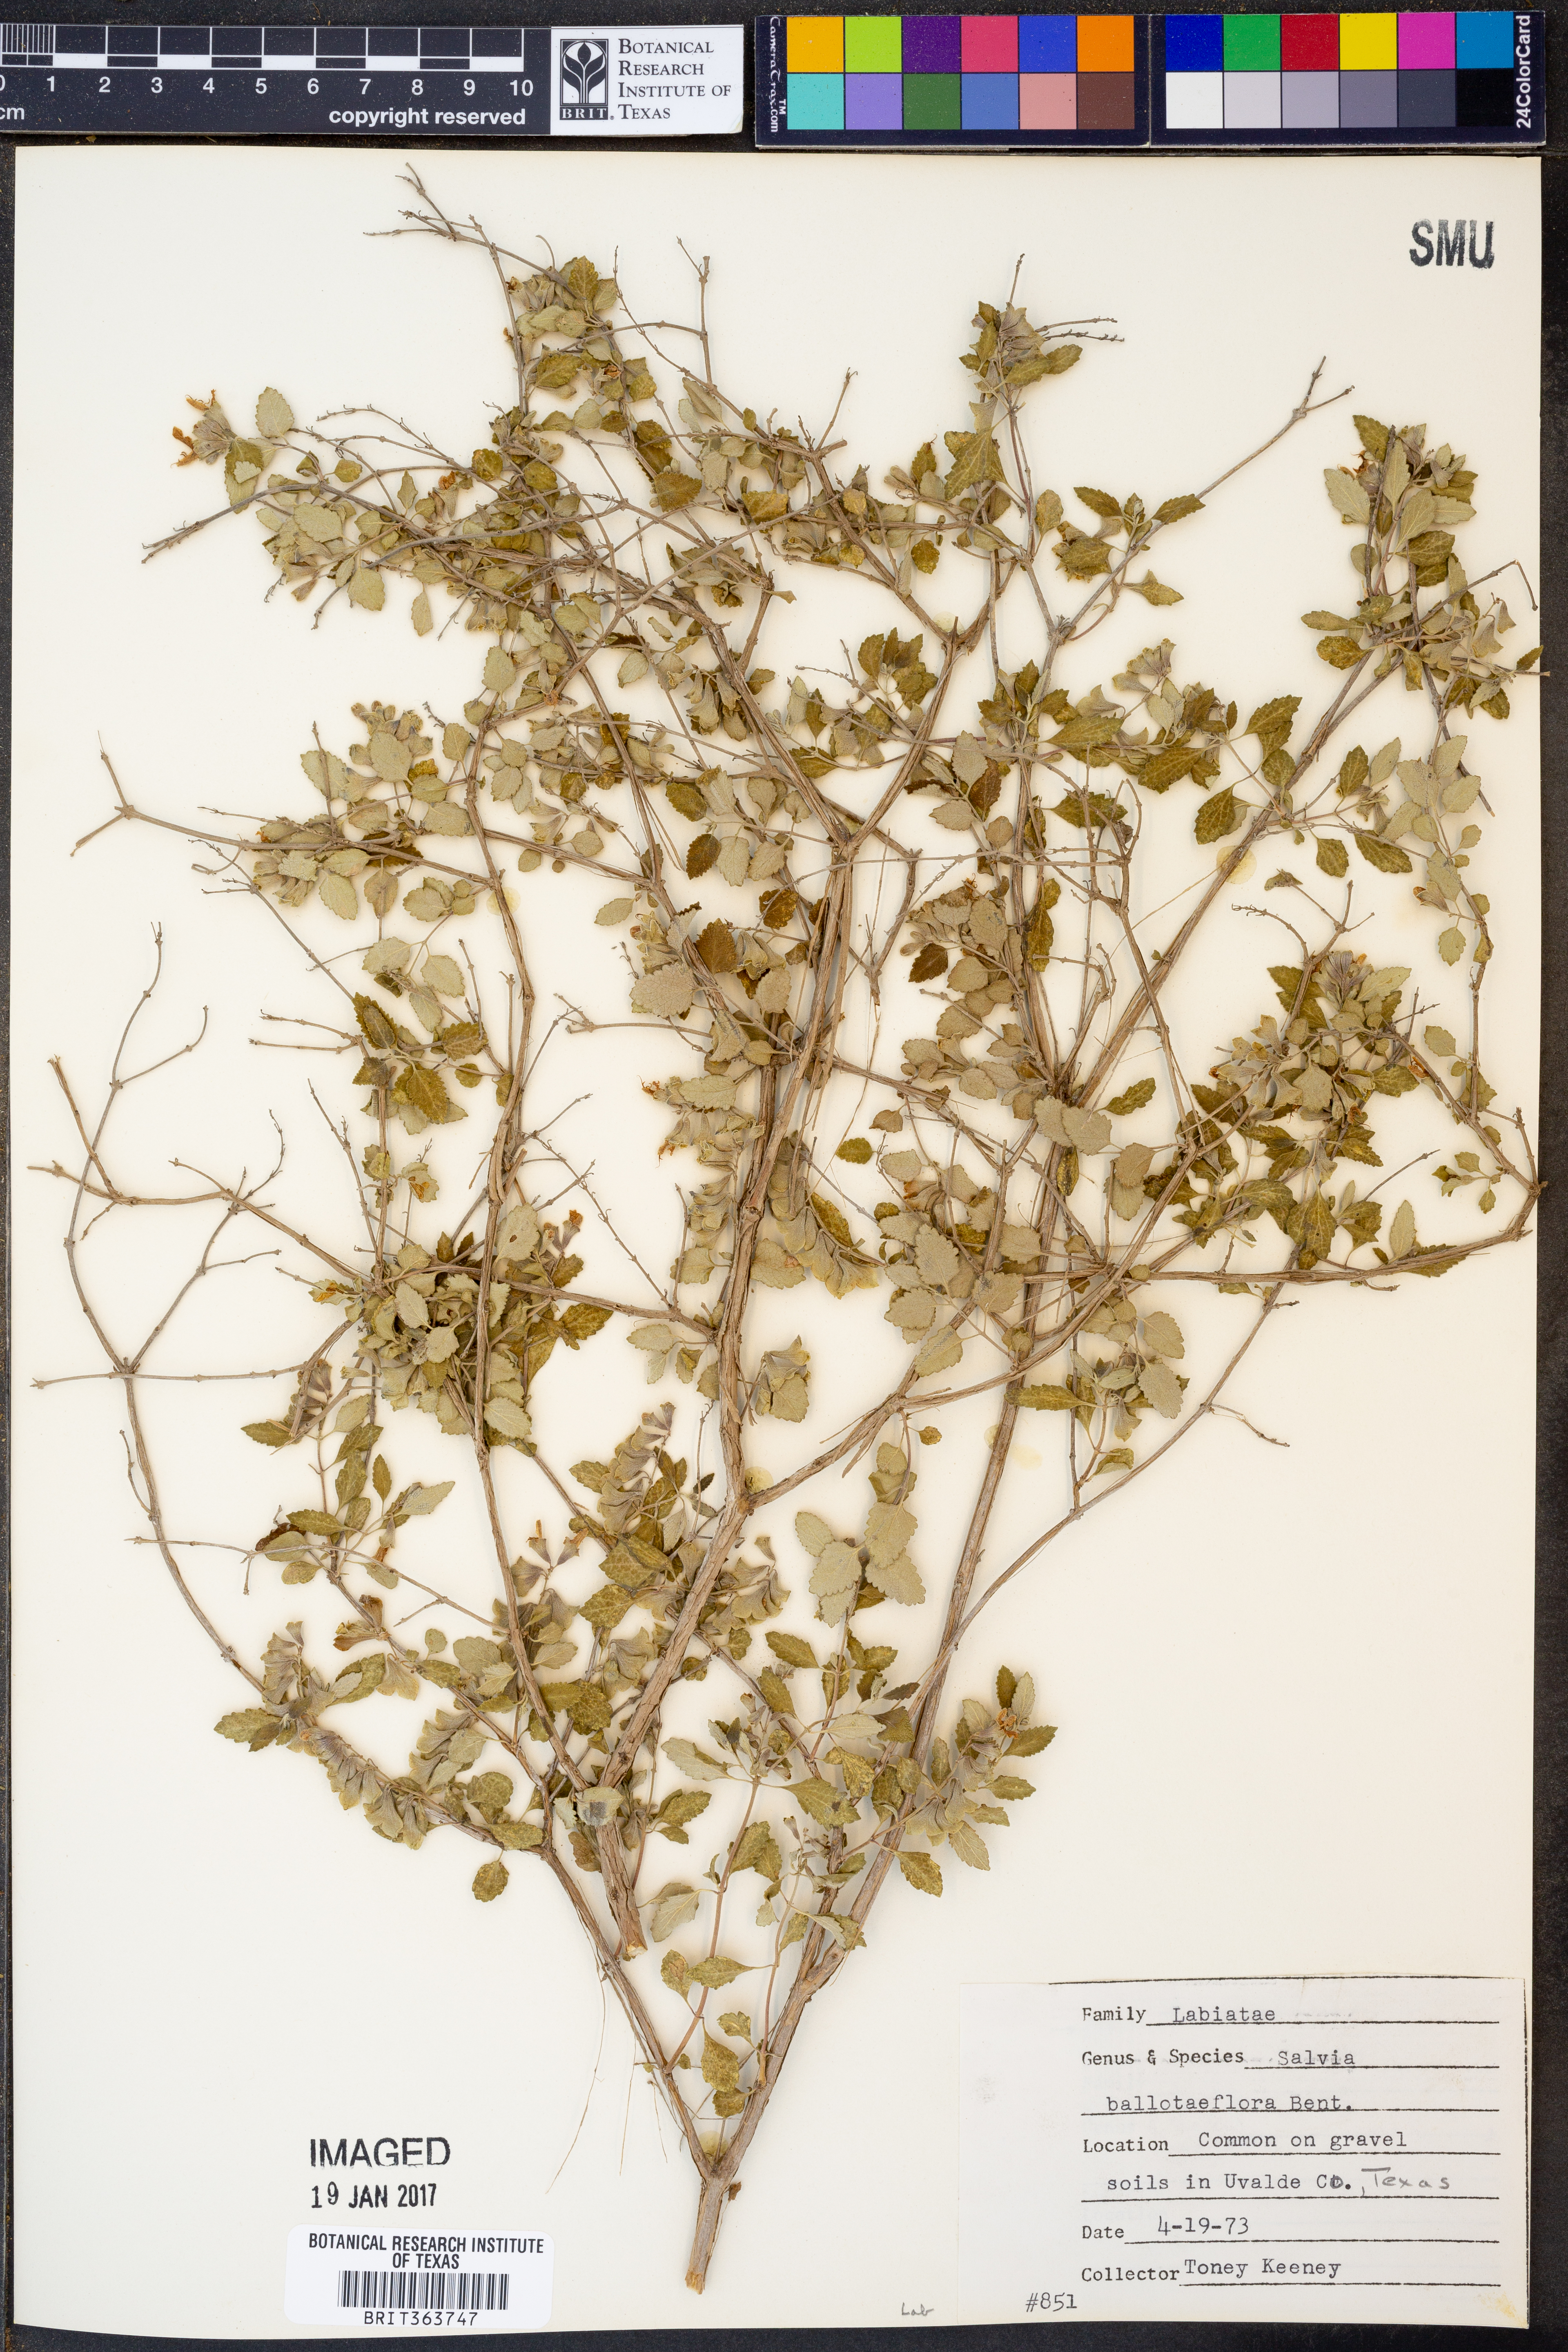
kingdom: Plantae
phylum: Tracheophyta
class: Magnoliopsida
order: Lamiales
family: Lamiaceae
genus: Salvia
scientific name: Salvia ballotiflora
